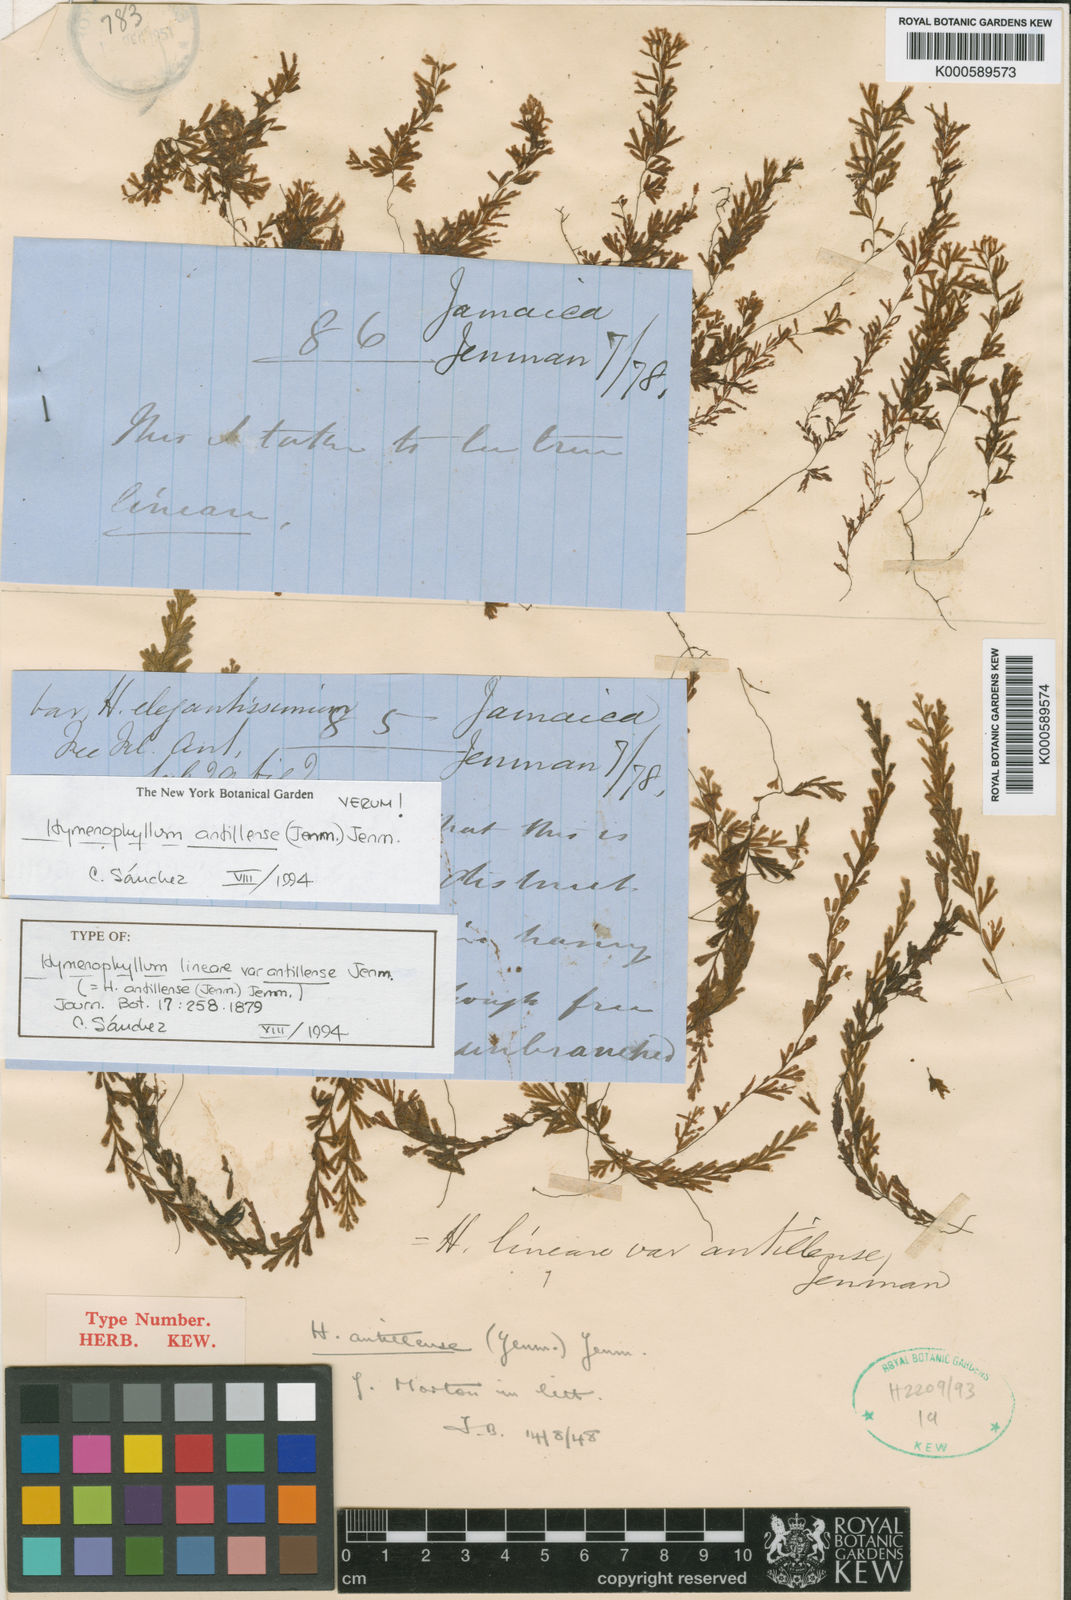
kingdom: Plantae
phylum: Tracheophyta
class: Polypodiopsida
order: Hymenophyllales
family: Hymenophyllaceae
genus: Hymenophyllum
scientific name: Hymenophyllum antillense
